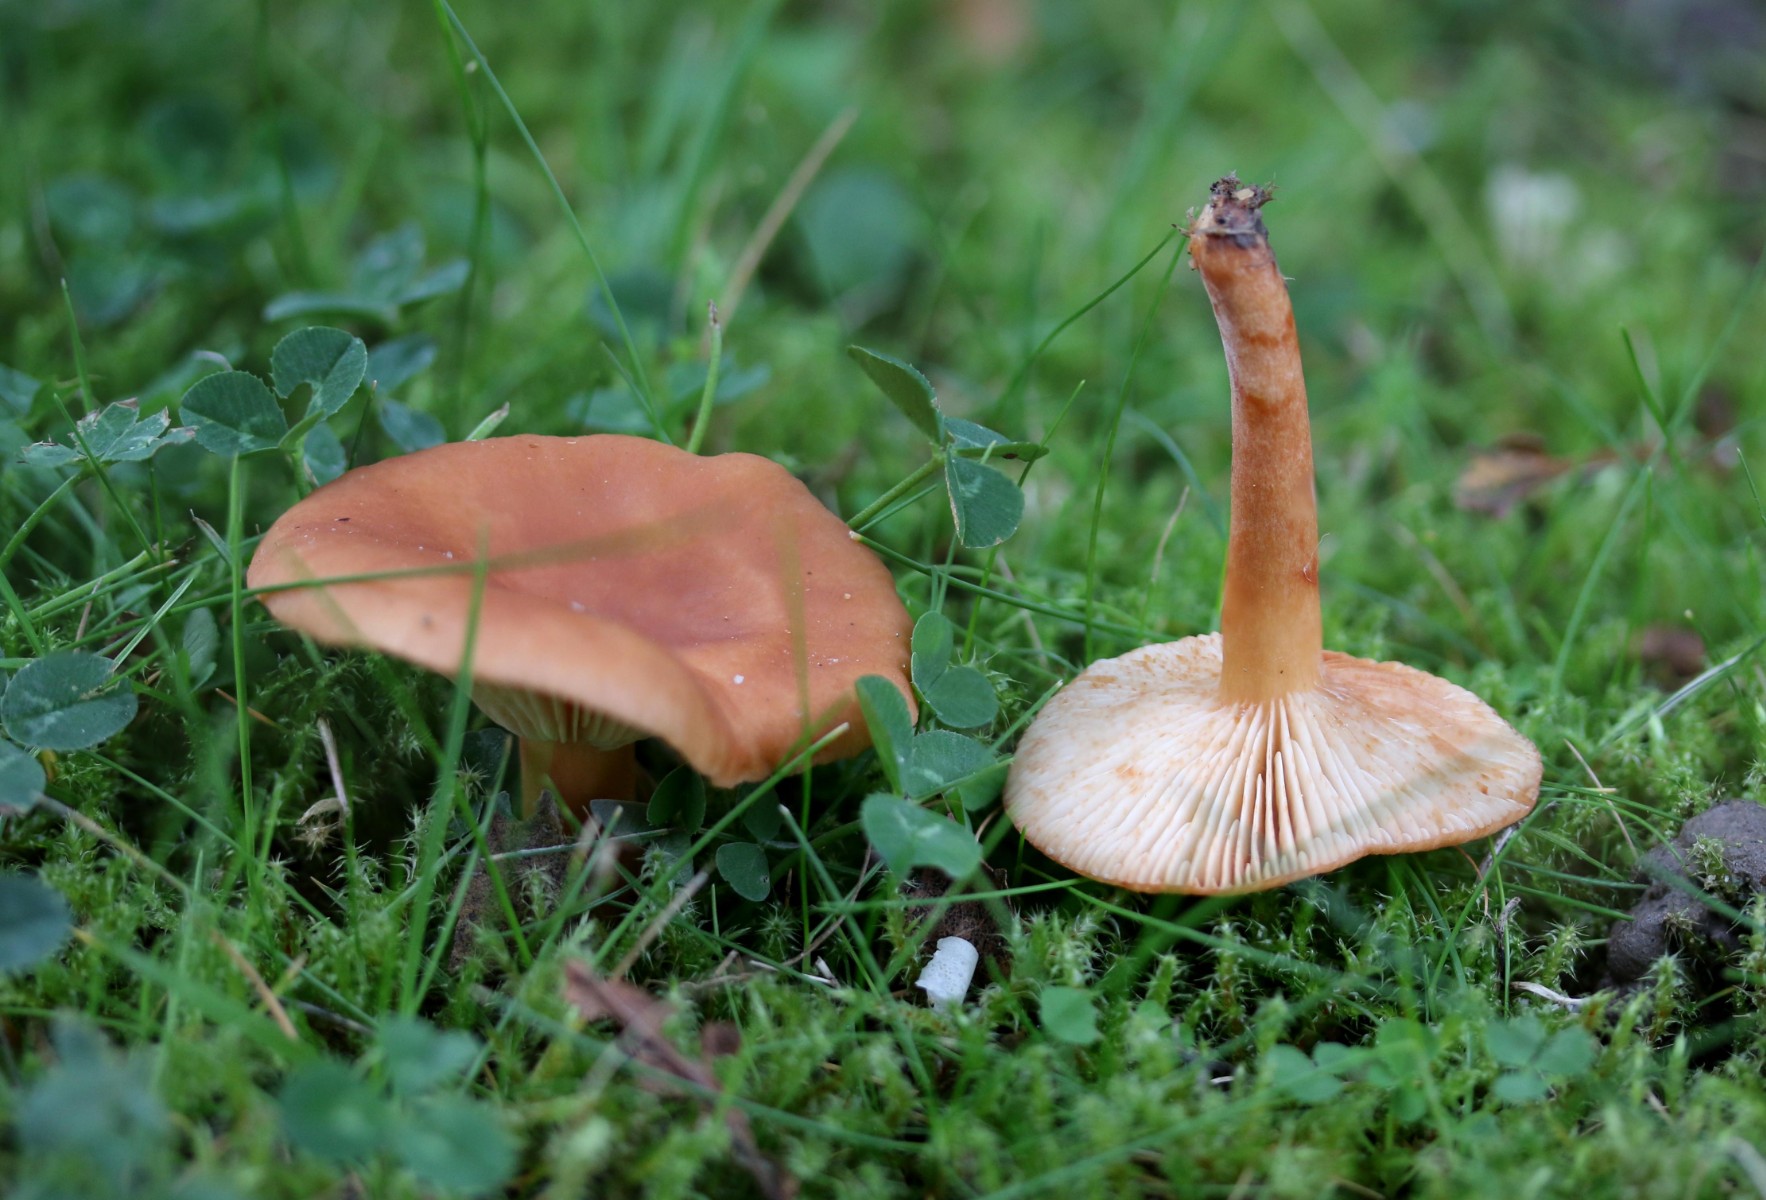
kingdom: Fungi
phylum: Basidiomycota
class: Agaricomycetes
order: Russulales
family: Russulaceae
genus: Lactarius
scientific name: Lactarius tabidus
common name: rynket mælkehat
